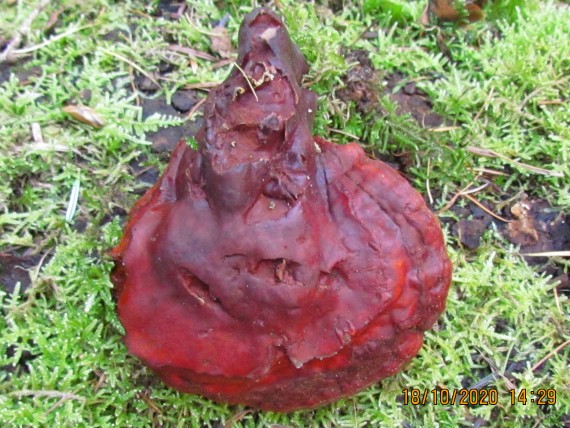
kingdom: Fungi
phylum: Basidiomycota
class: Agaricomycetes
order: Polyporales
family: Polyporaceae
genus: Ganoderma
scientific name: Ganoderma lucidum
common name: skinnende lakporesvamp
